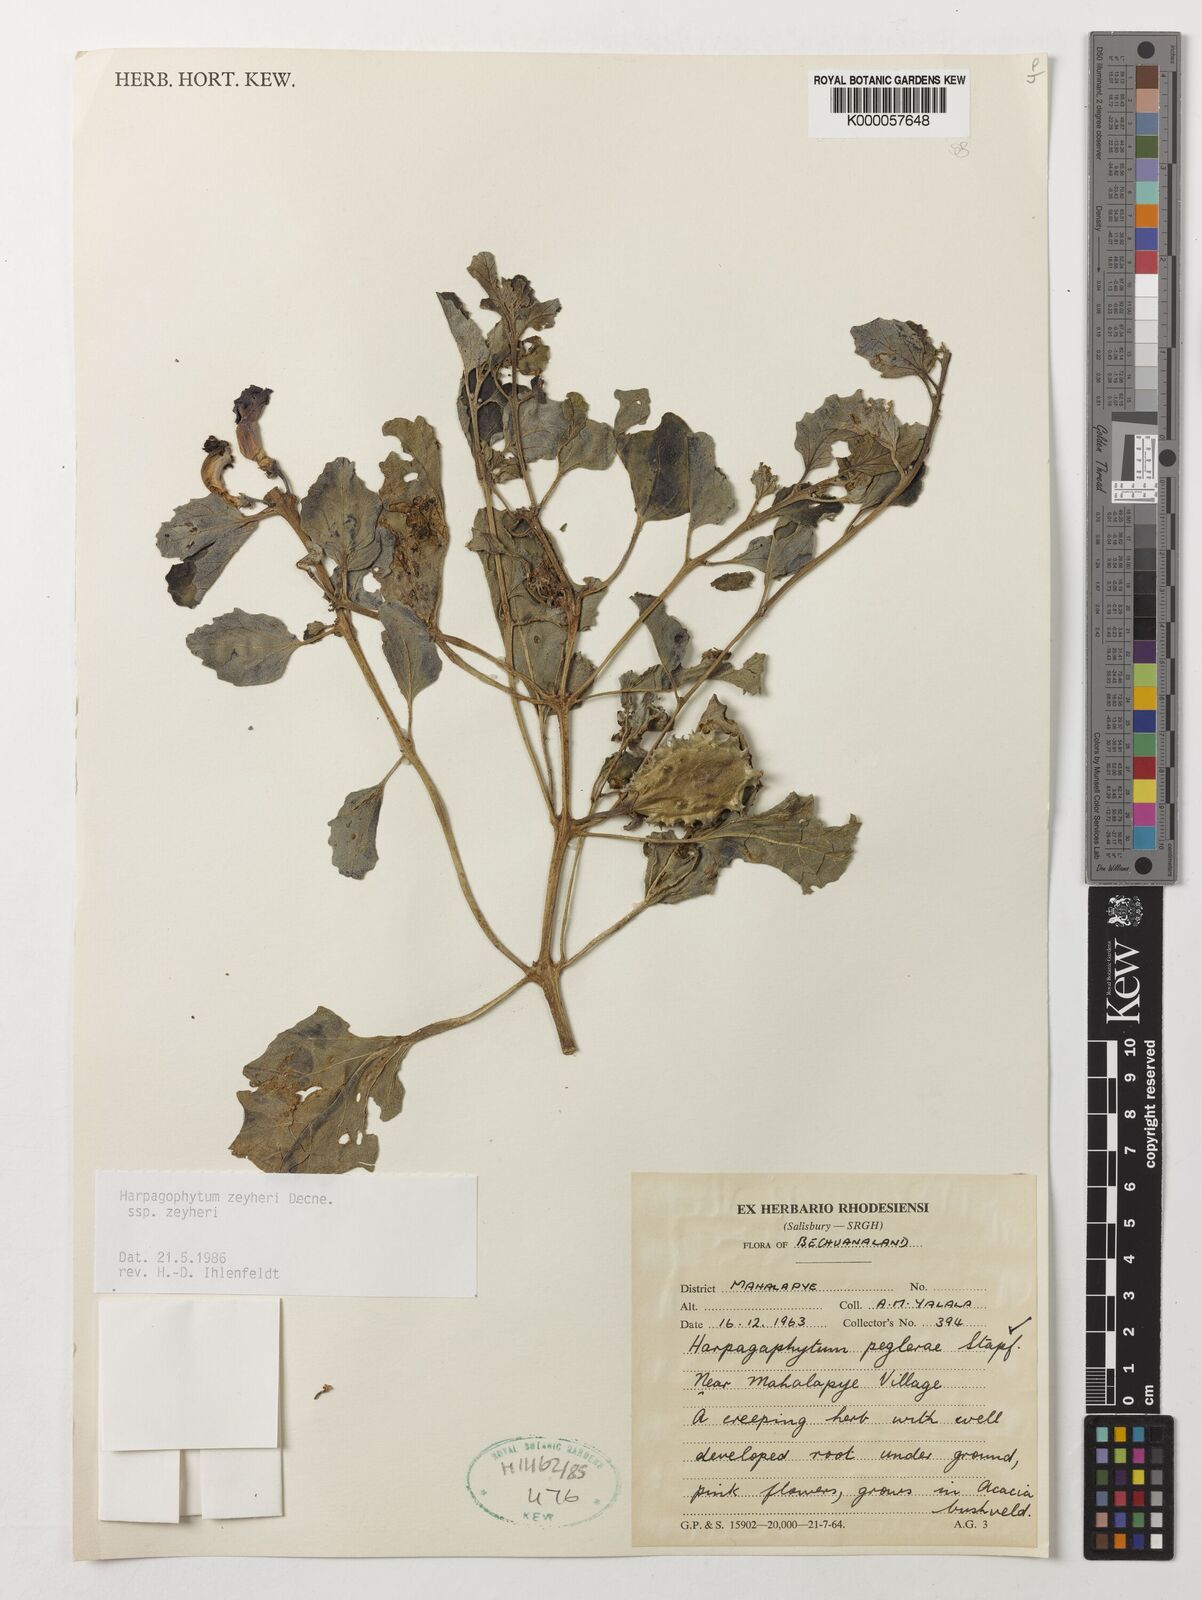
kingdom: Plantae
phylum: Tracheophyta
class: Magnoliopsida
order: Lamiales
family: Pedaliaceae
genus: Harpagophytum
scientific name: Harpagophytum zeyheri
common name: Grappleplant
